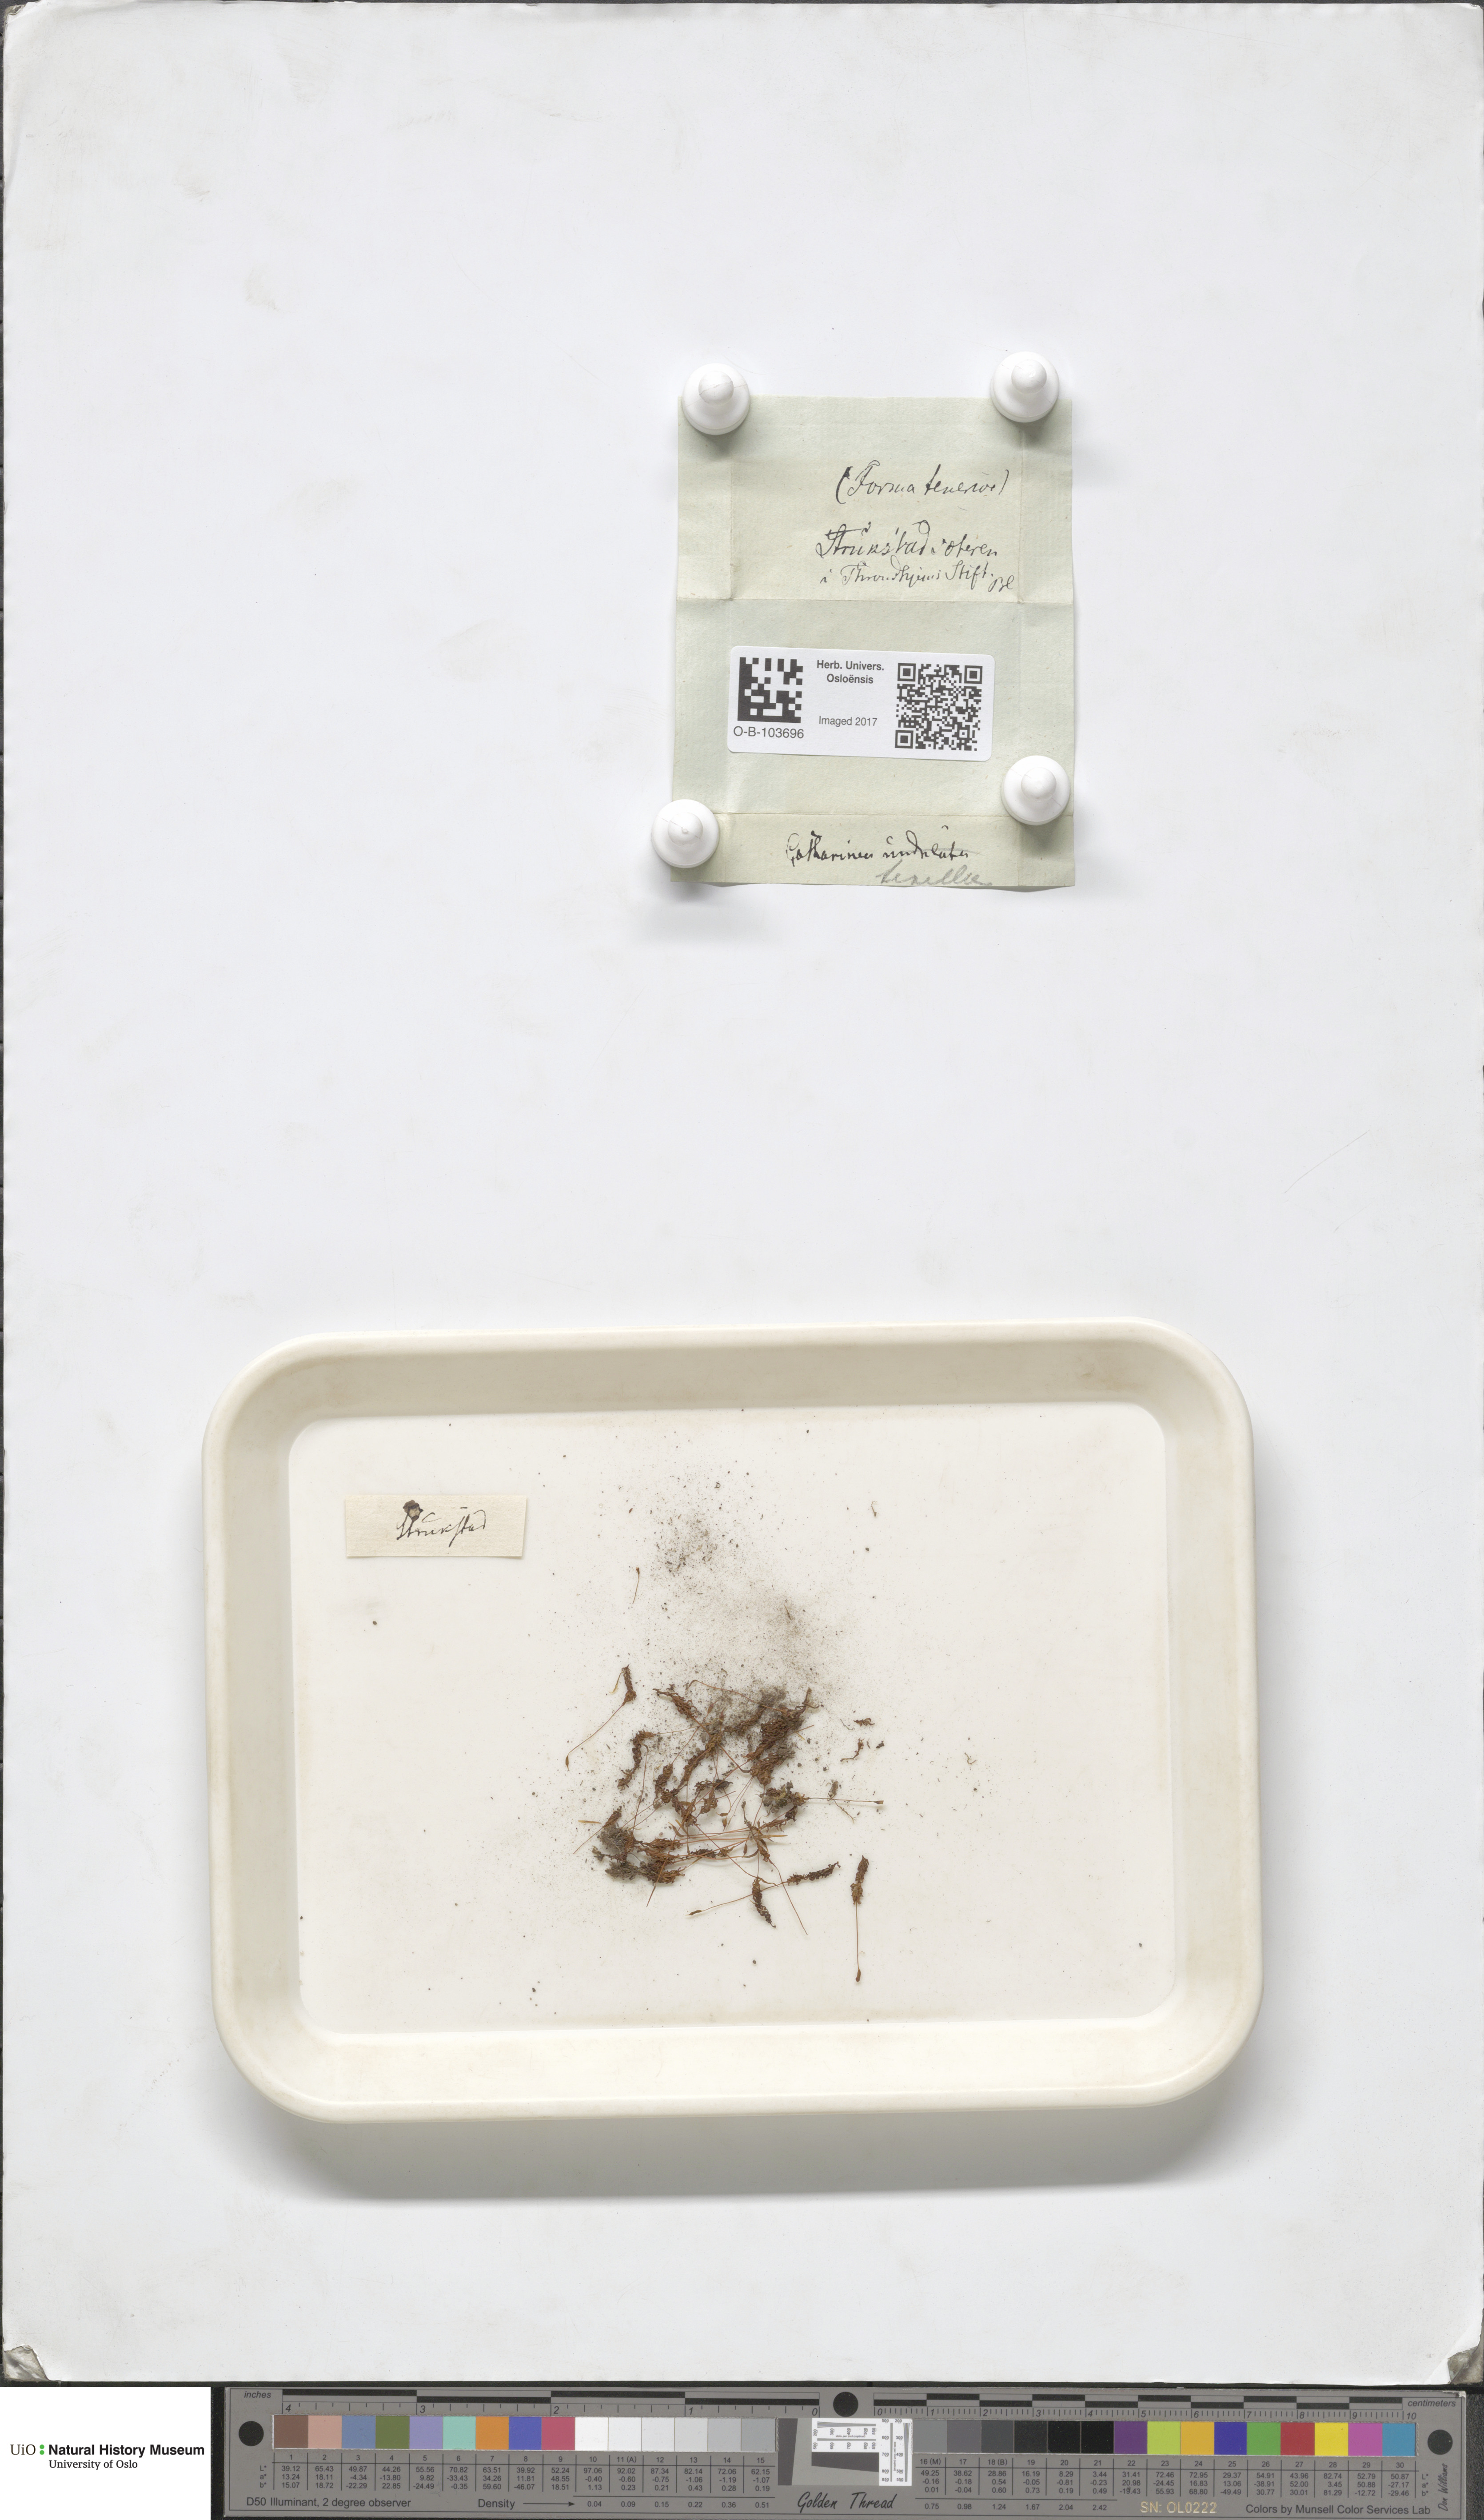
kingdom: Plantae
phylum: Bryophyta
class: Polytrichopsida
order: Polytrichales
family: Polytrichaceae
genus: Atrichum
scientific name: Atrichum undulatum
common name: Common smoothcap
